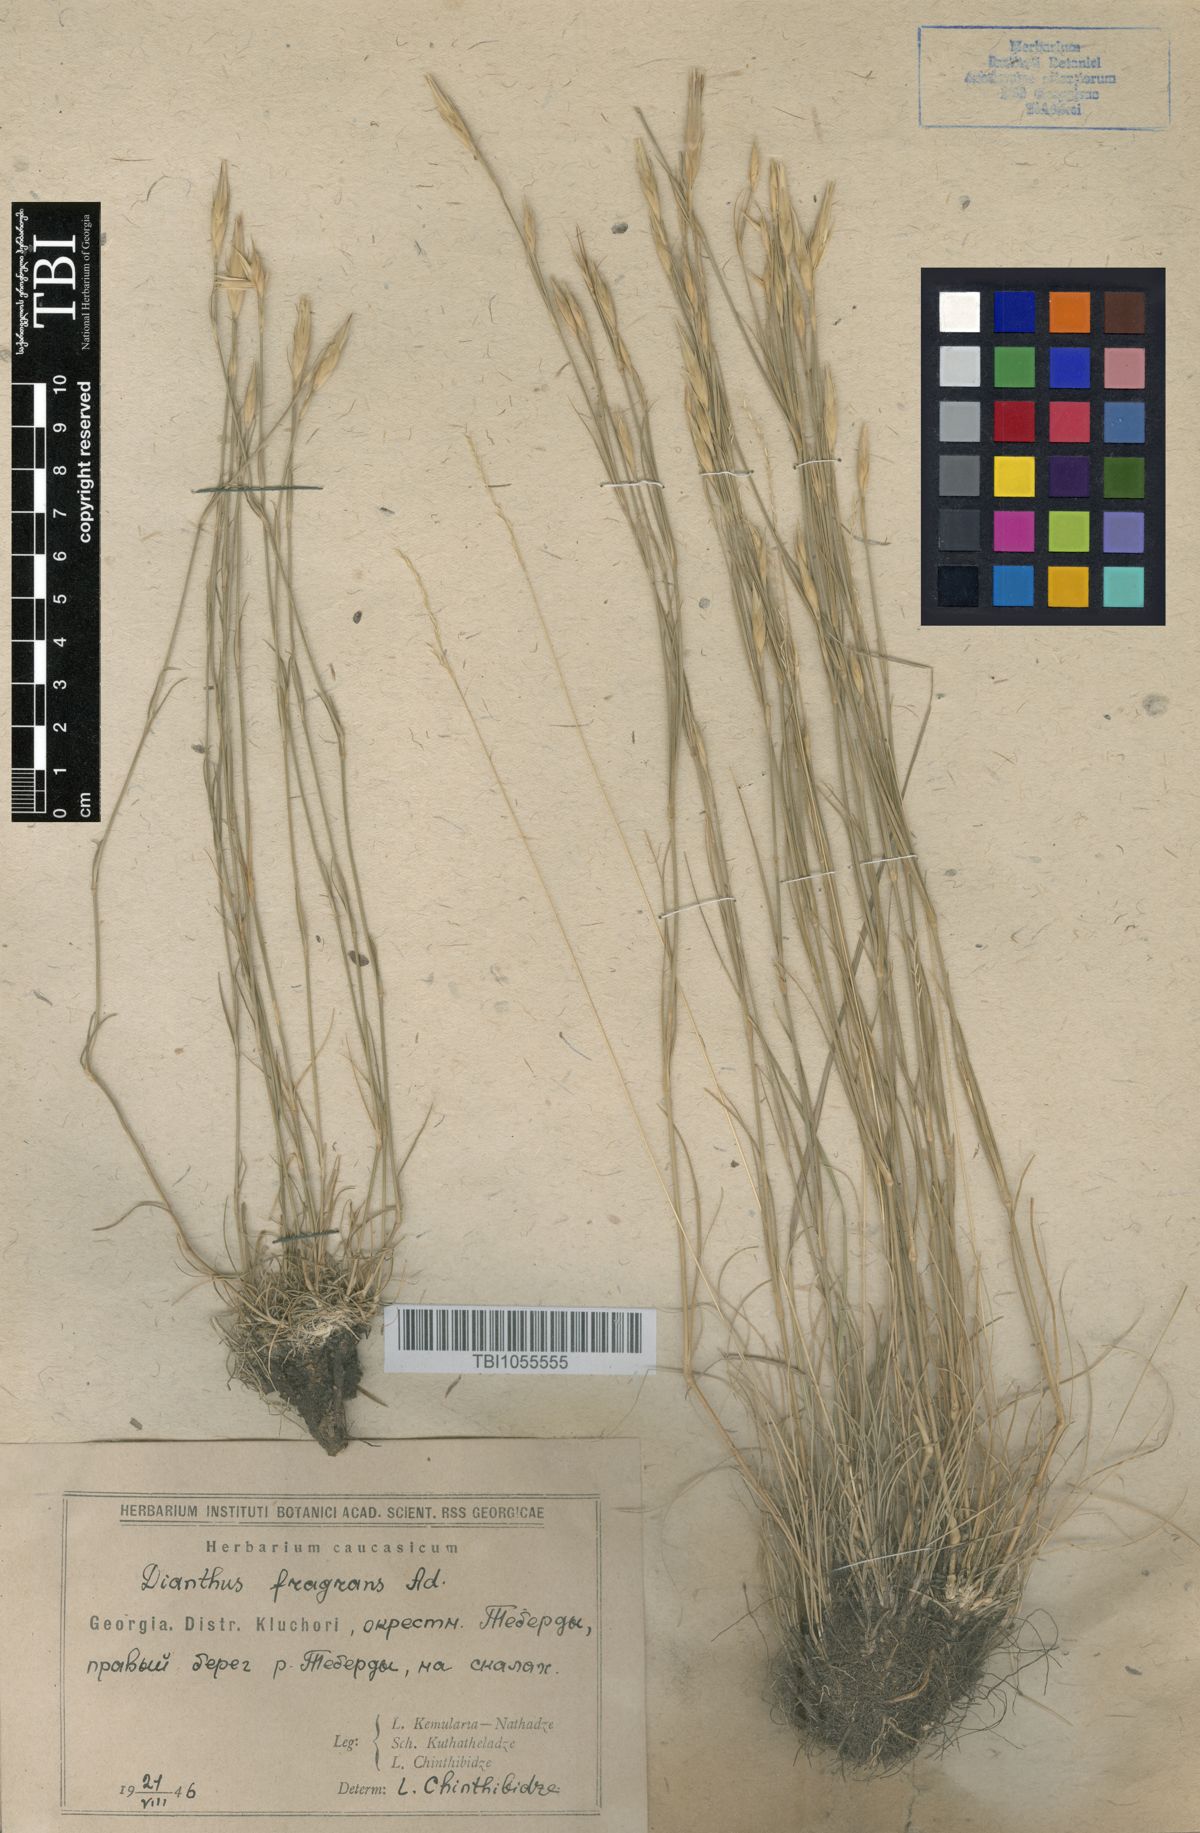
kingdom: Plantae
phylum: Tracheophyta
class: Magnoliopsida
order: Caryophyllales
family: Caryophyllaceae
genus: Dianthus
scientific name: Dianthus
